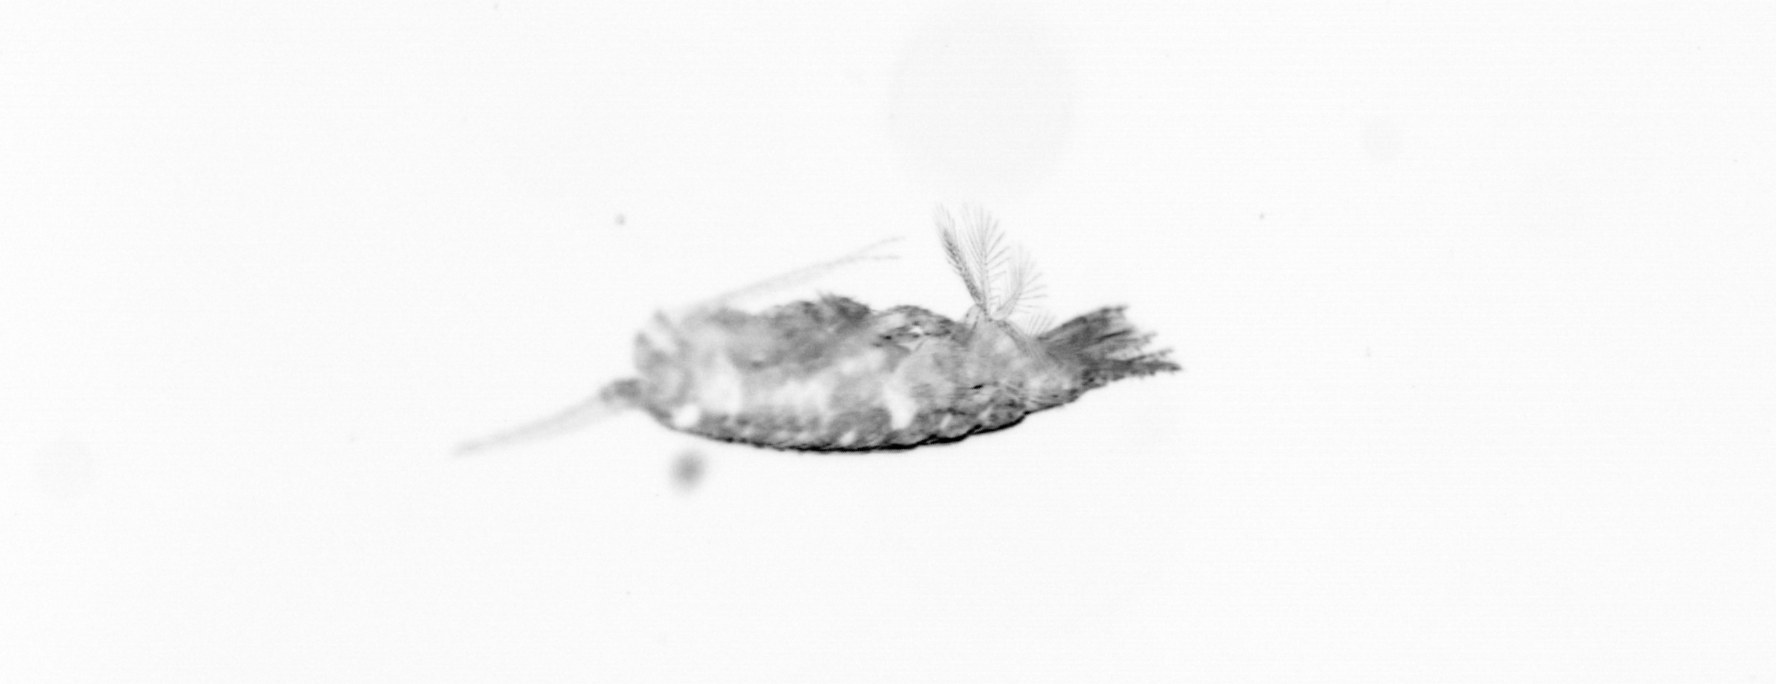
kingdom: Animalia
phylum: Arthropoda
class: Copepoda
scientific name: Copepoda
